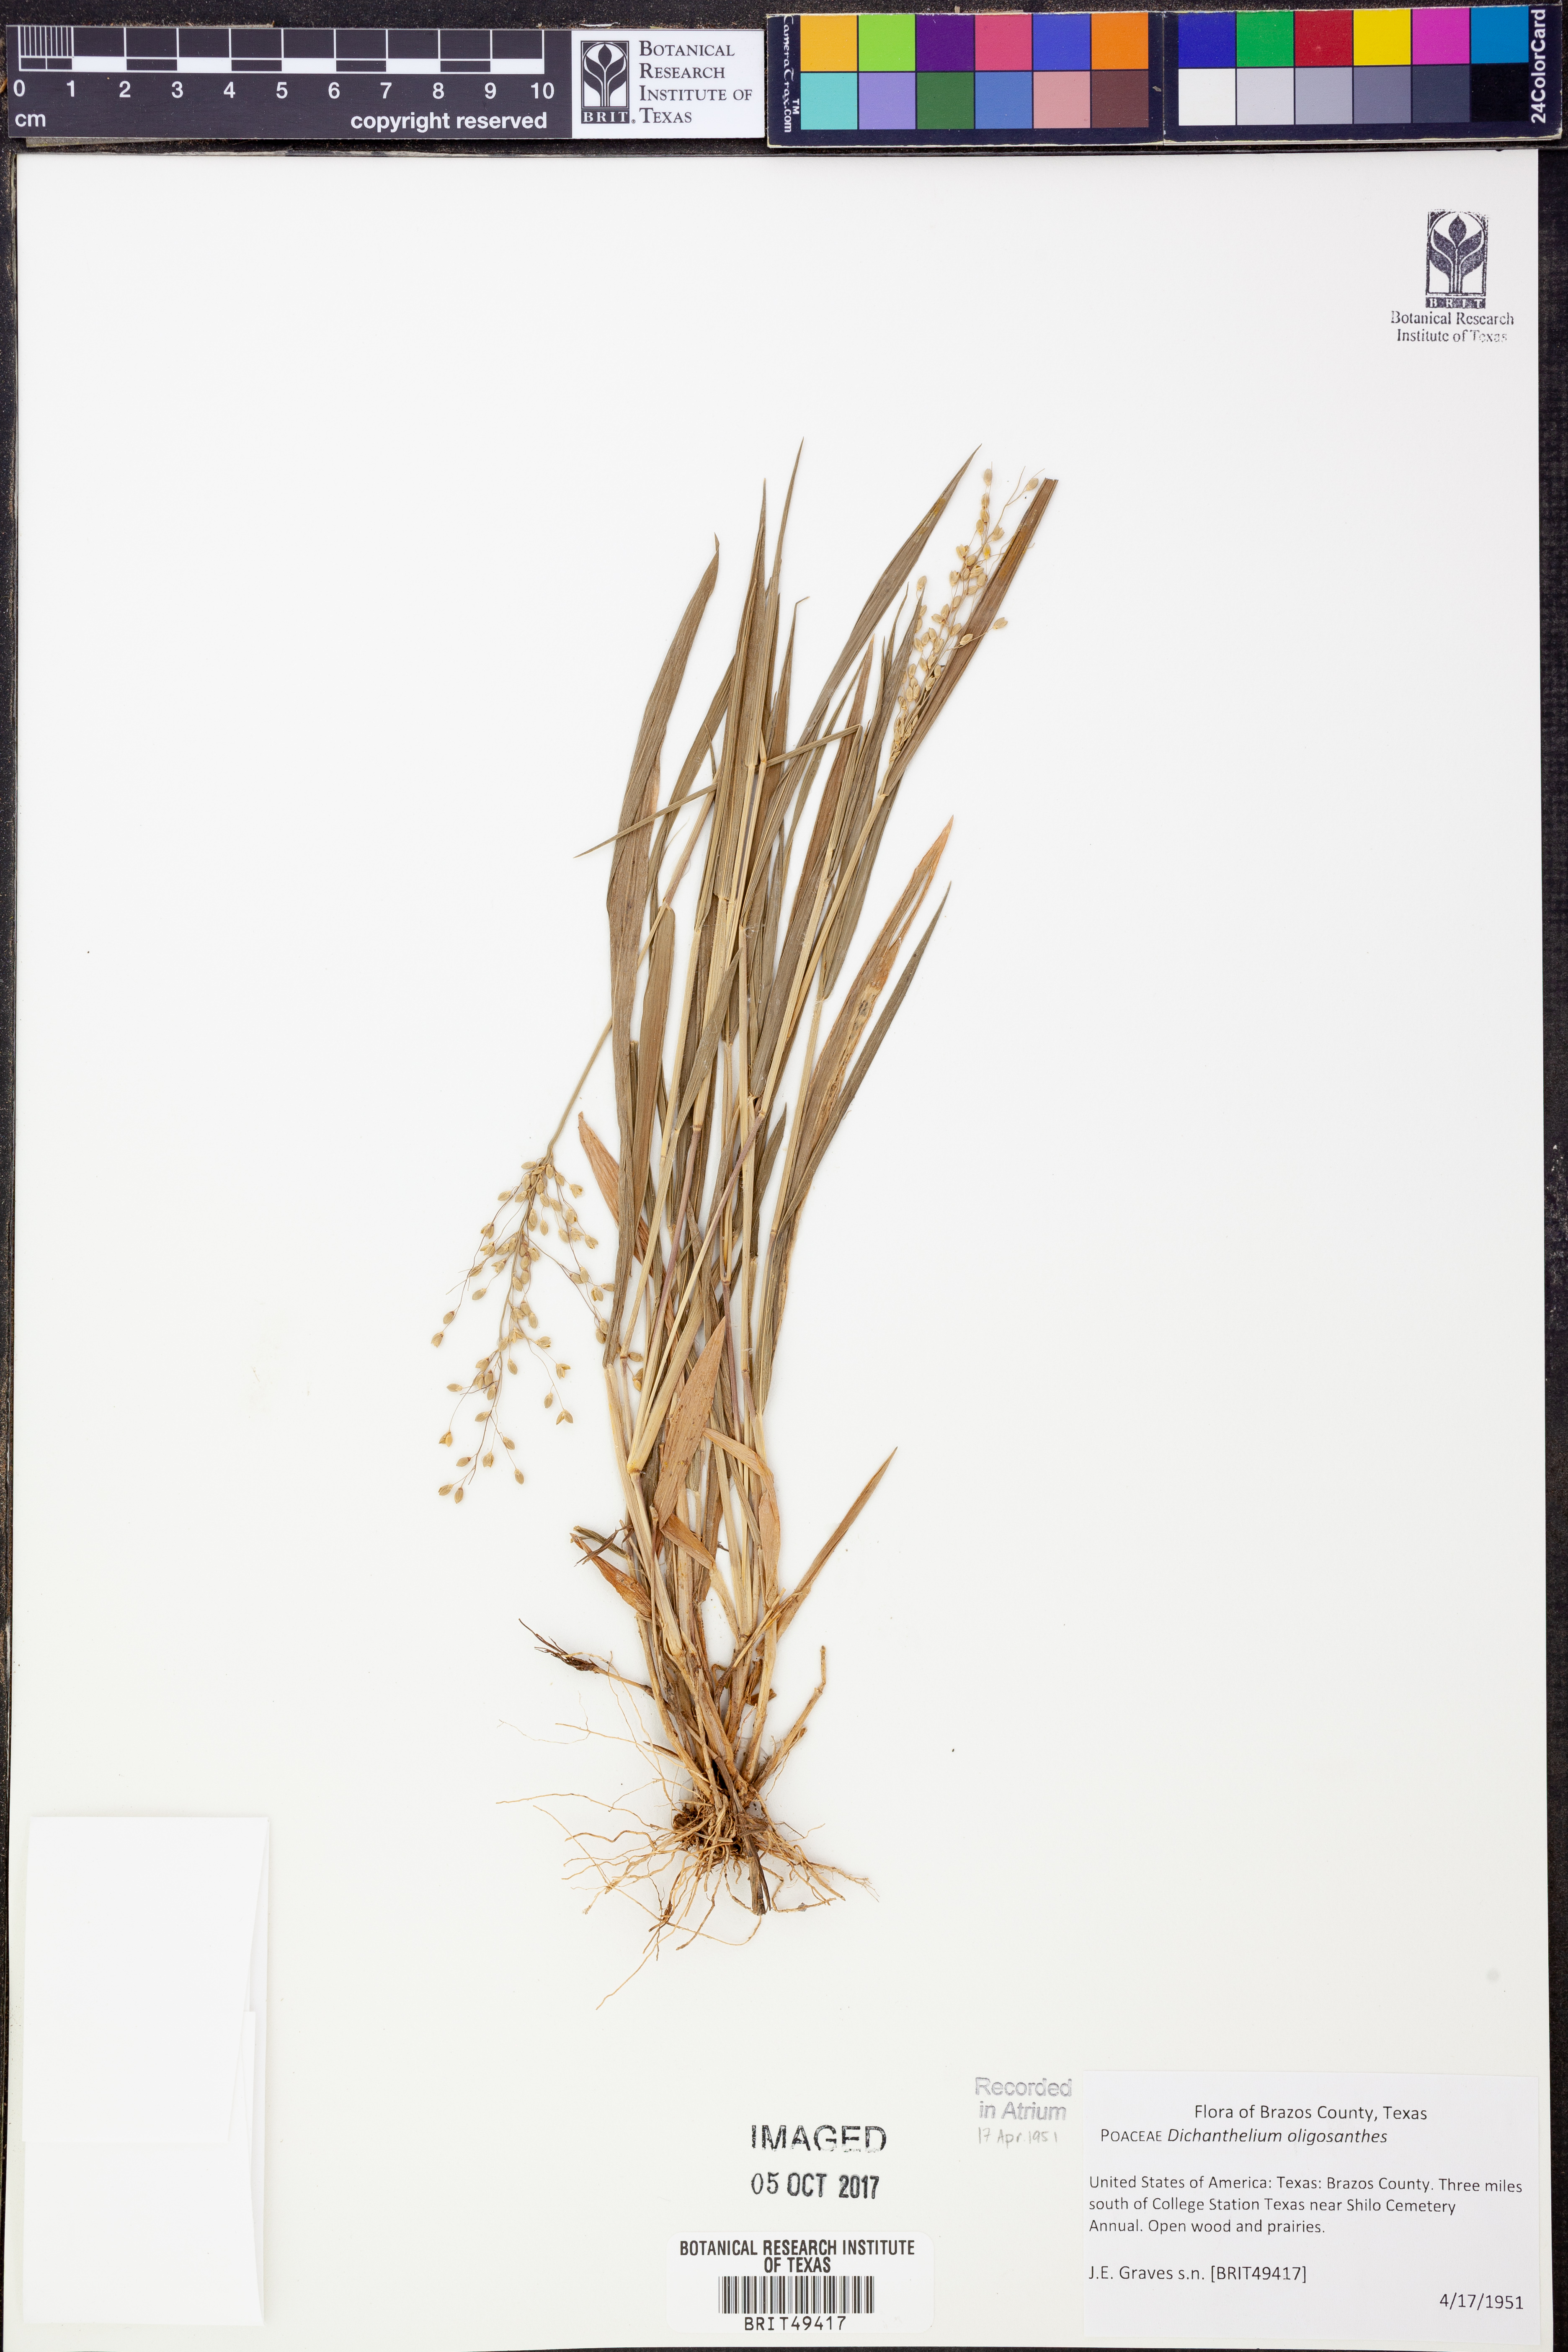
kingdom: Plantae
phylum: Tracheophyta
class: Liliopsida
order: Poales
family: Poaceae
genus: Dichanthelium
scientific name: Dichanthelium oligosanthes
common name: Few-anther obscuregrass
